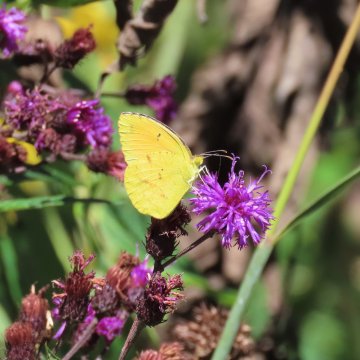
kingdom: Animalia
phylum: Arthropoda
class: Insecta
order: Lepidoptera
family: Pieridae
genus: Abaeis
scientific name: Abaeis nicippe
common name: Sleepy Orange
